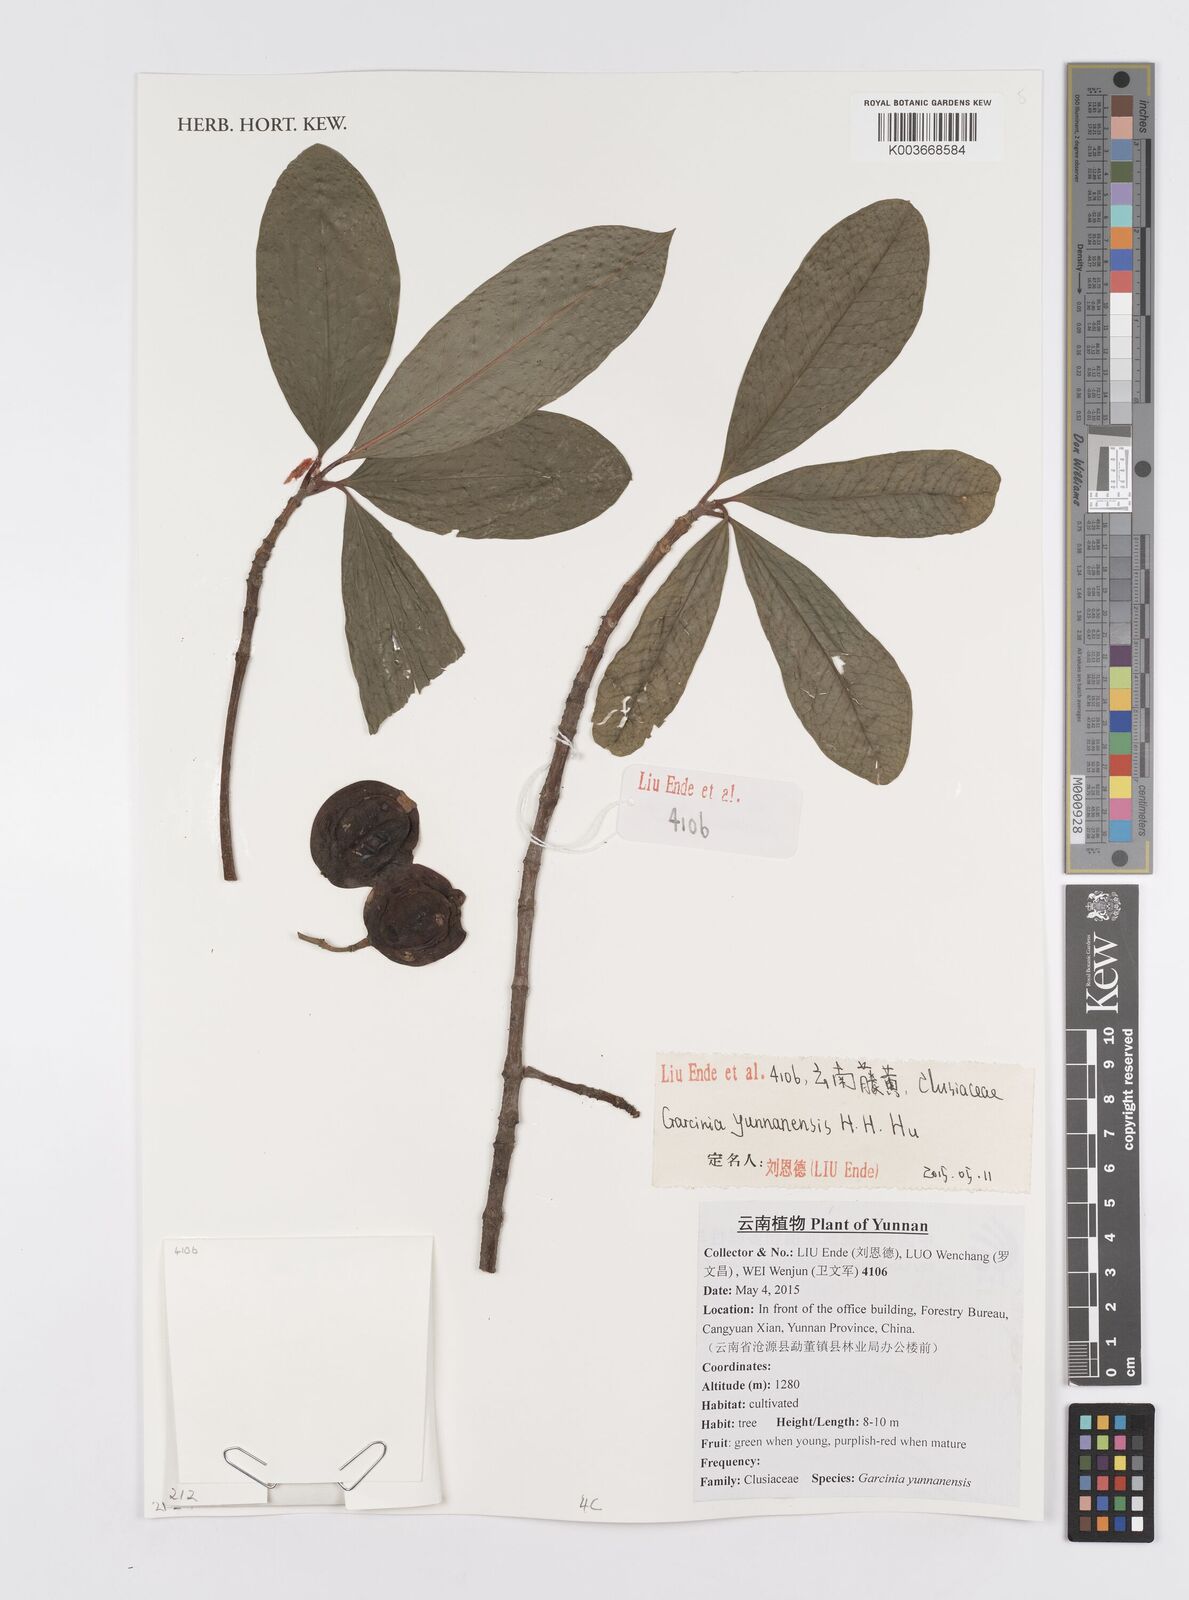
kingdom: Plantae
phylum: Tracheophyta
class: Magnoliopsida
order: Malpighiales
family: Clusiaceae
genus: Garcinia
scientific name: Garcinia yunnanensis
